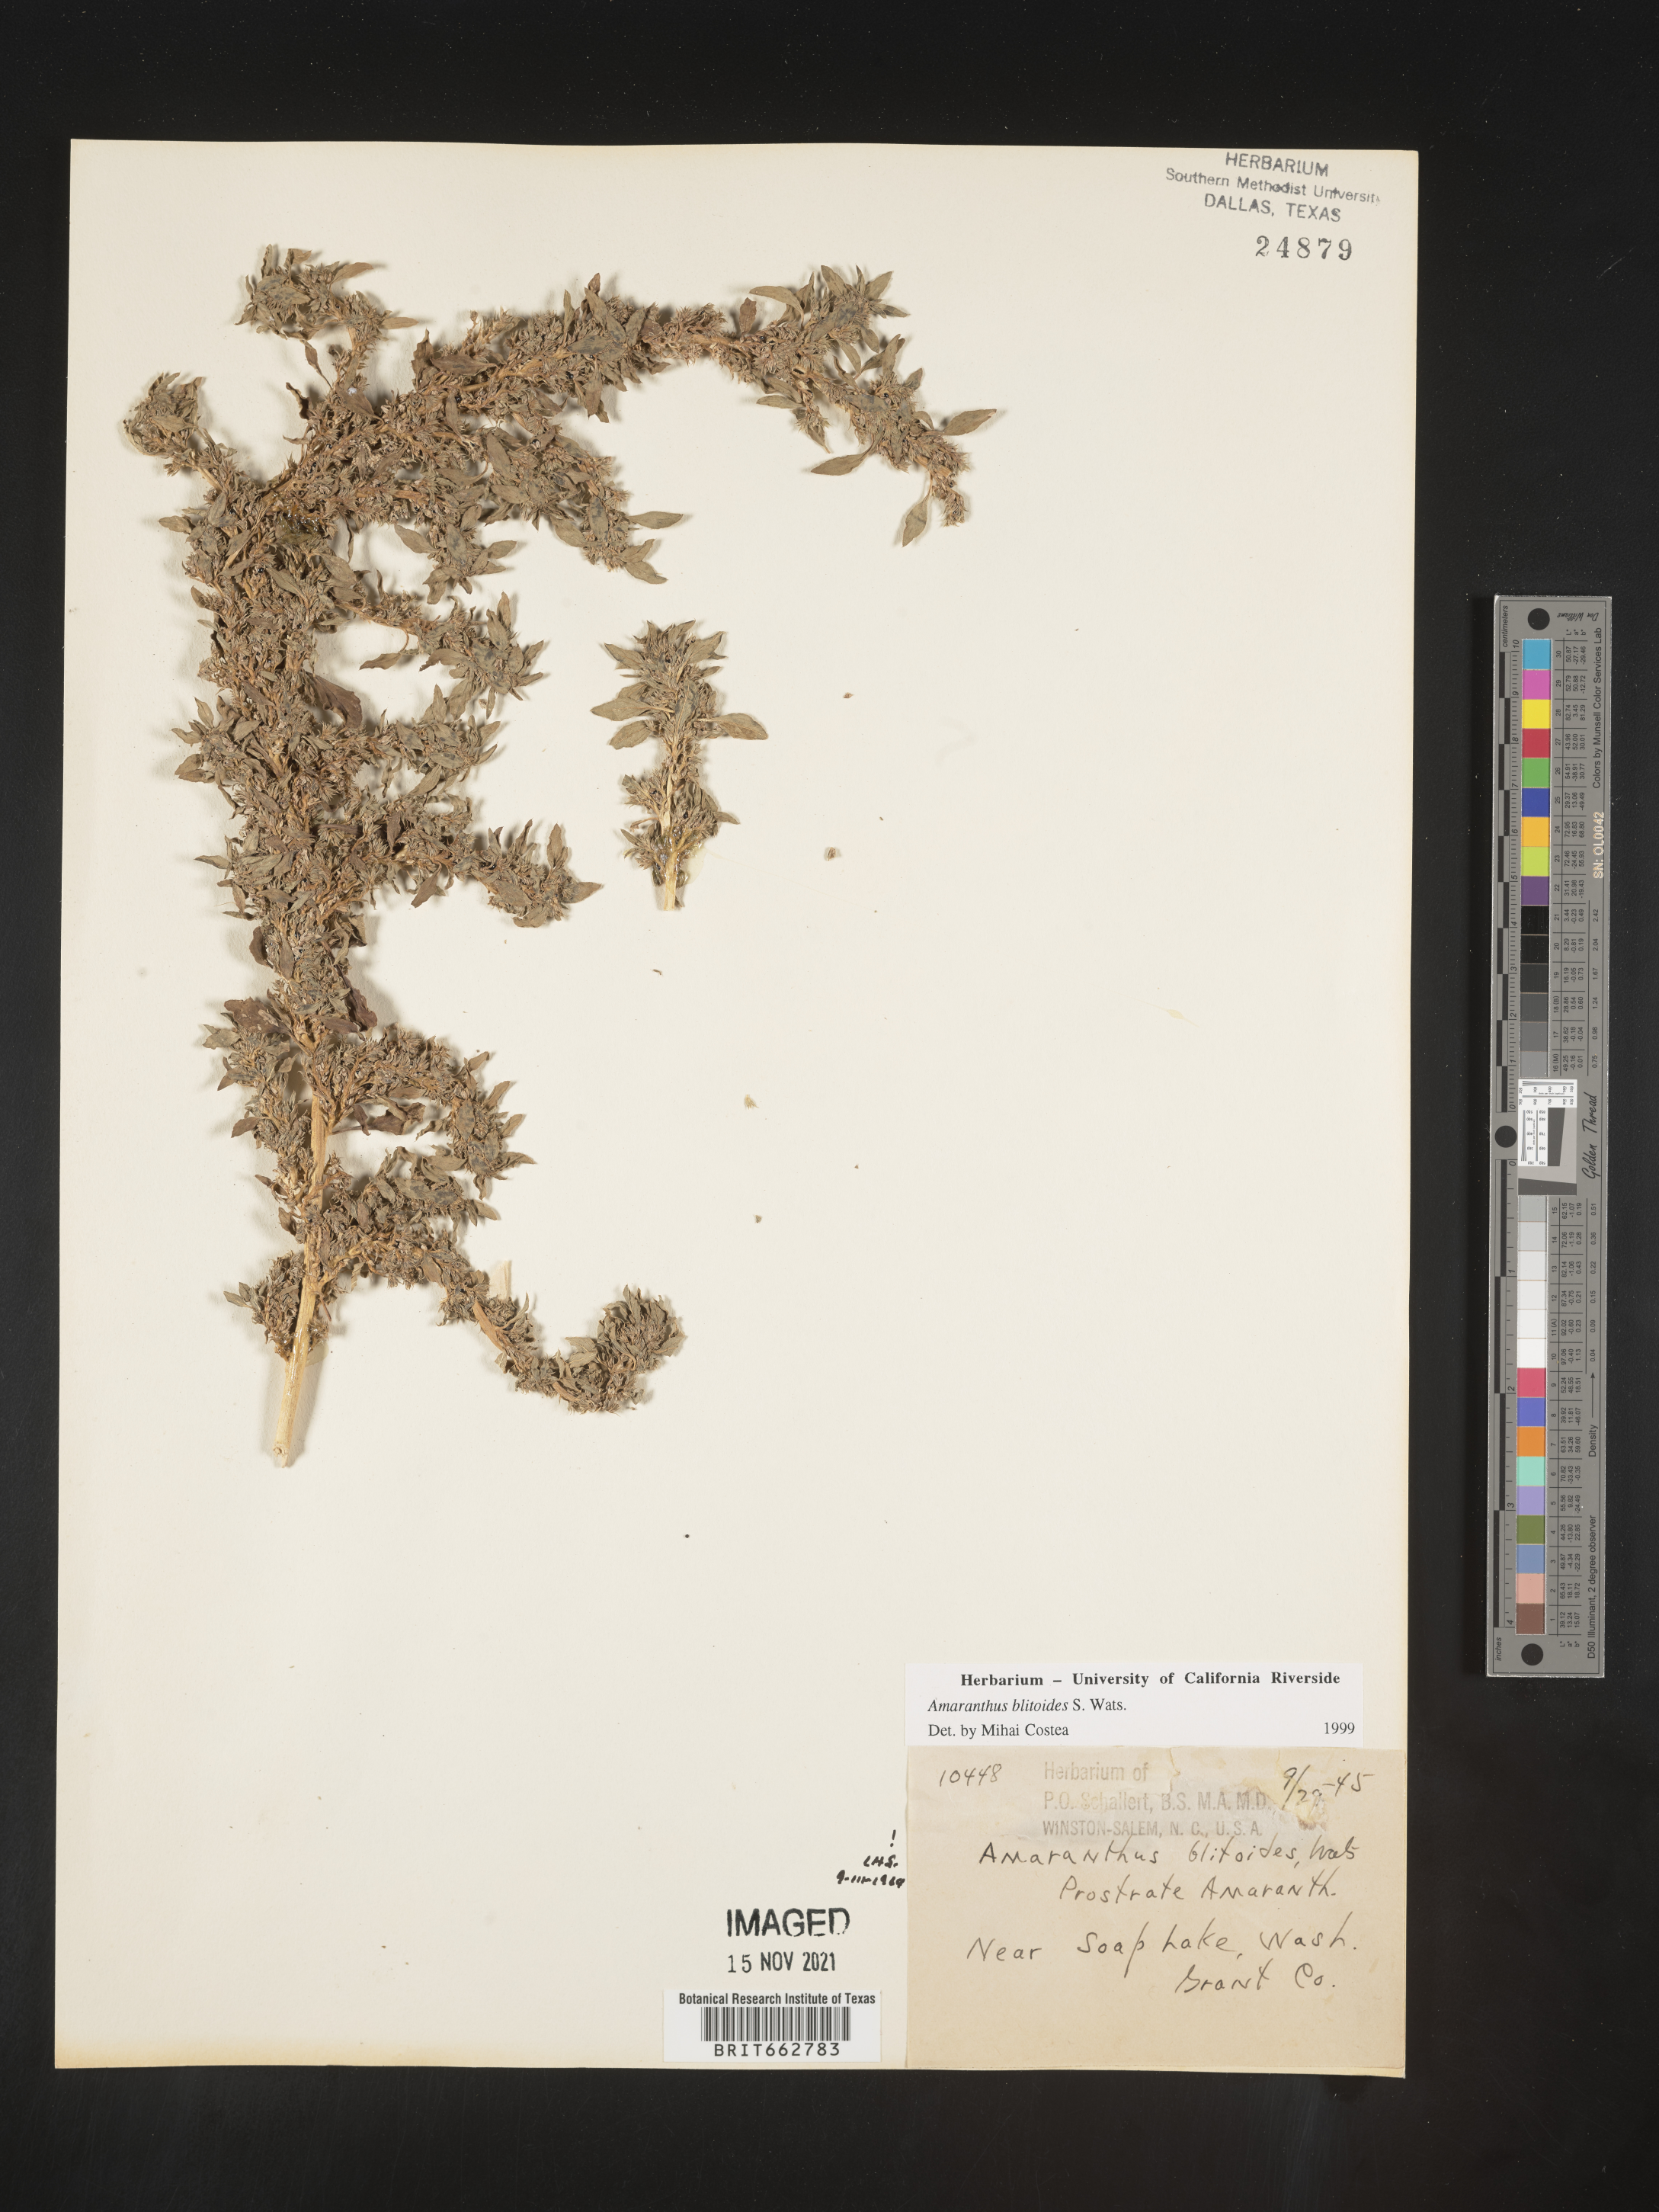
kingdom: Plantae
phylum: Tracheophyta
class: Magnoliopsida
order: Caryophyllales
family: Amaranthaceae
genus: Amaranthus
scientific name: Amaranthus blitoides
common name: Prostrate pigweed
